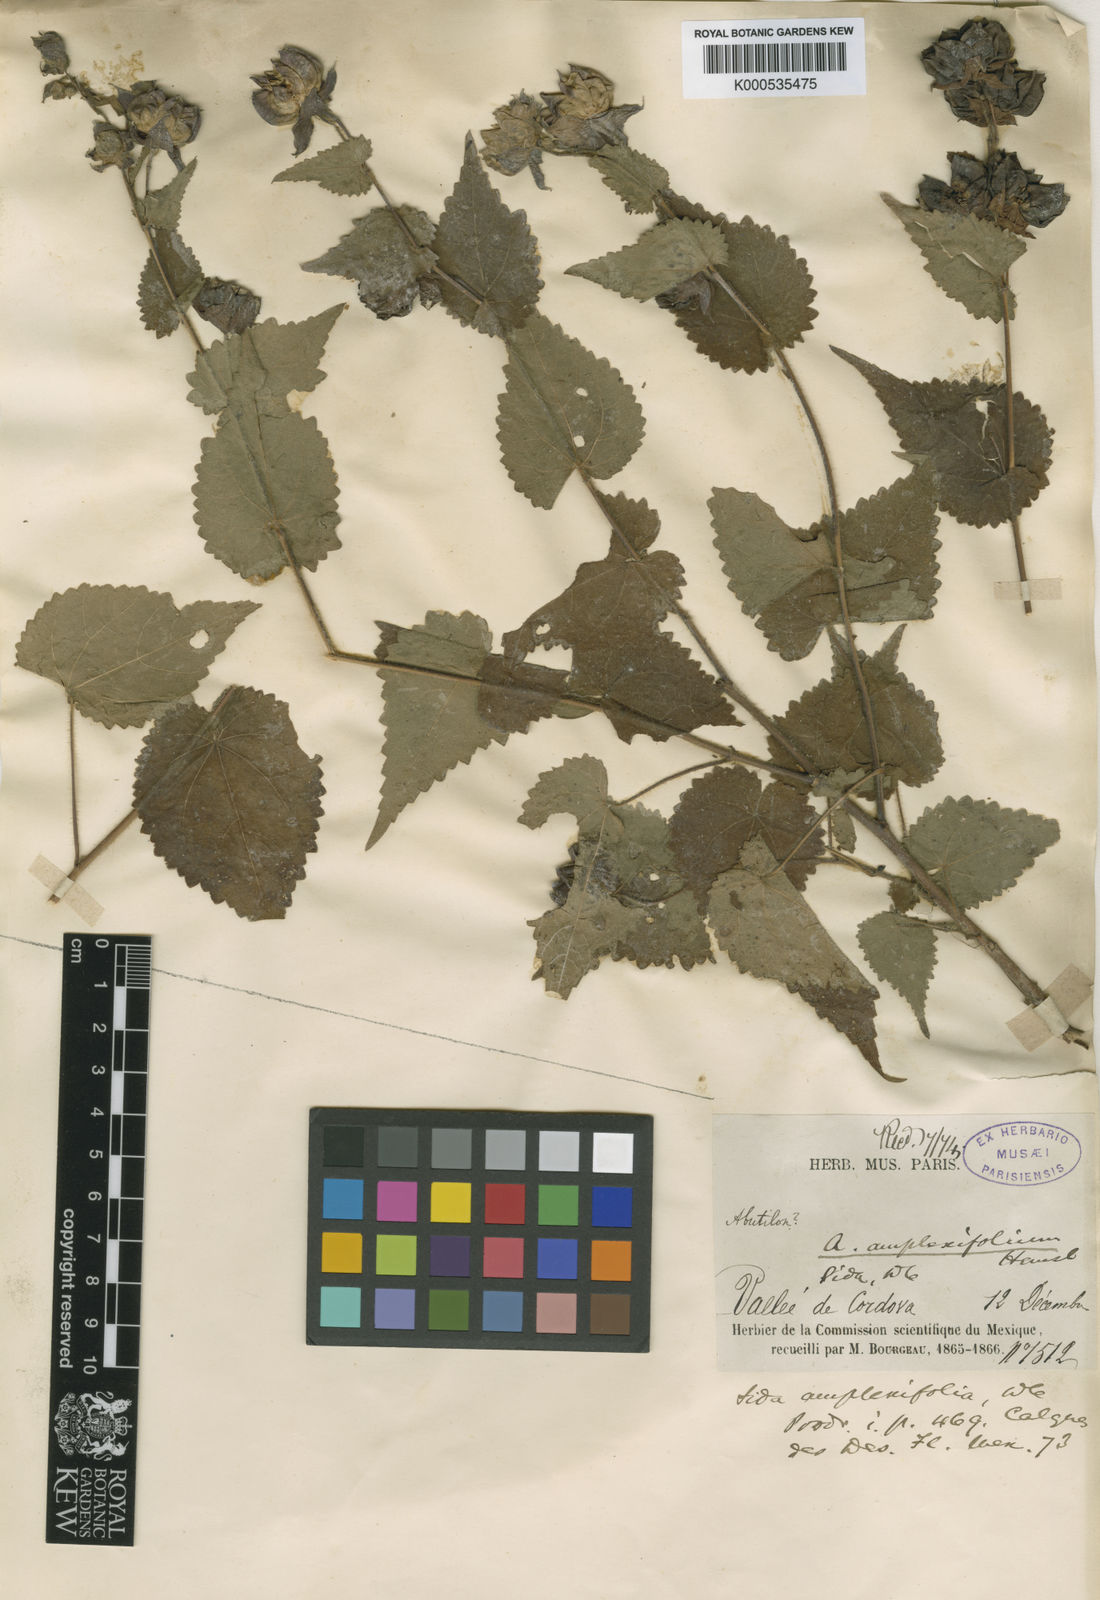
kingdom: Plantae
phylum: Tracheophyta
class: Magnoliopsida
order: Malvales
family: Malvaceae
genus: Hochreutinera
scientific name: Hochreutinera amplexifolia
